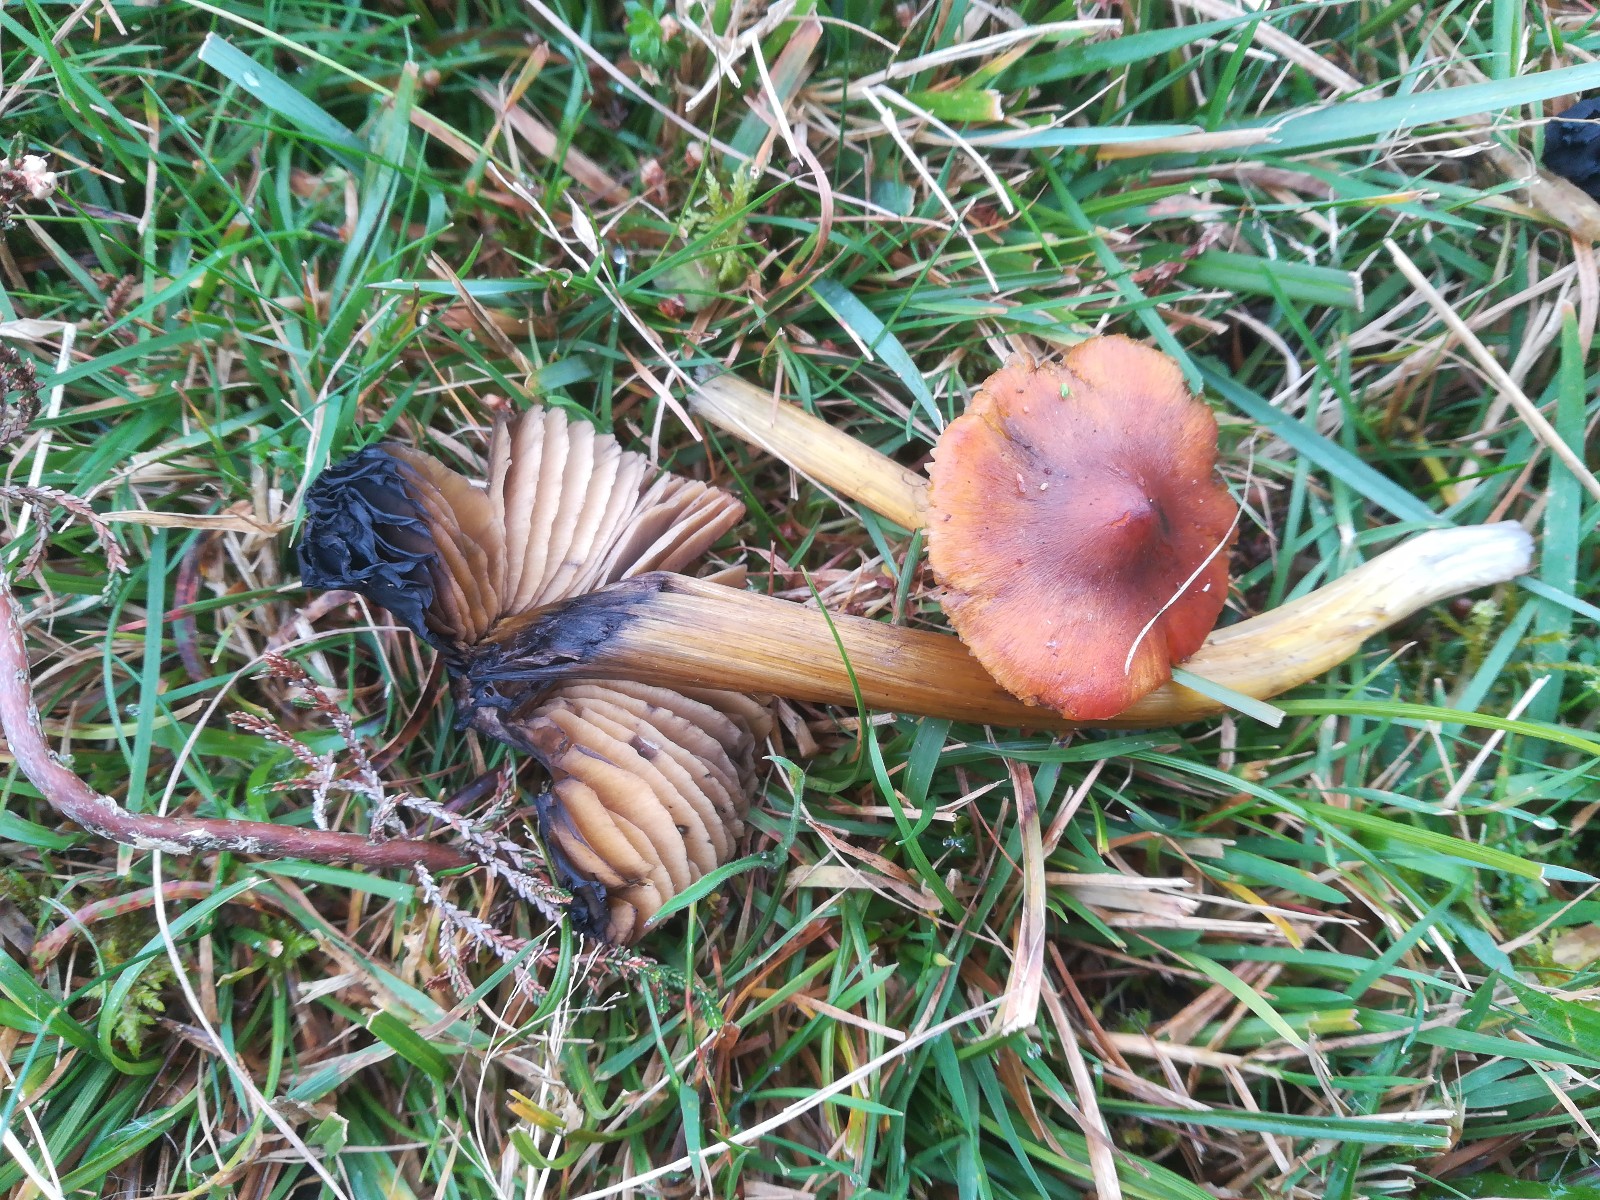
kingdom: Fungi
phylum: Basidiomycota
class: Agaricomycetes
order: Agaricales
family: Hygrophoraceae
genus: Hygrocybe
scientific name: Hygrocybe conica
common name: kegle-vokshat
